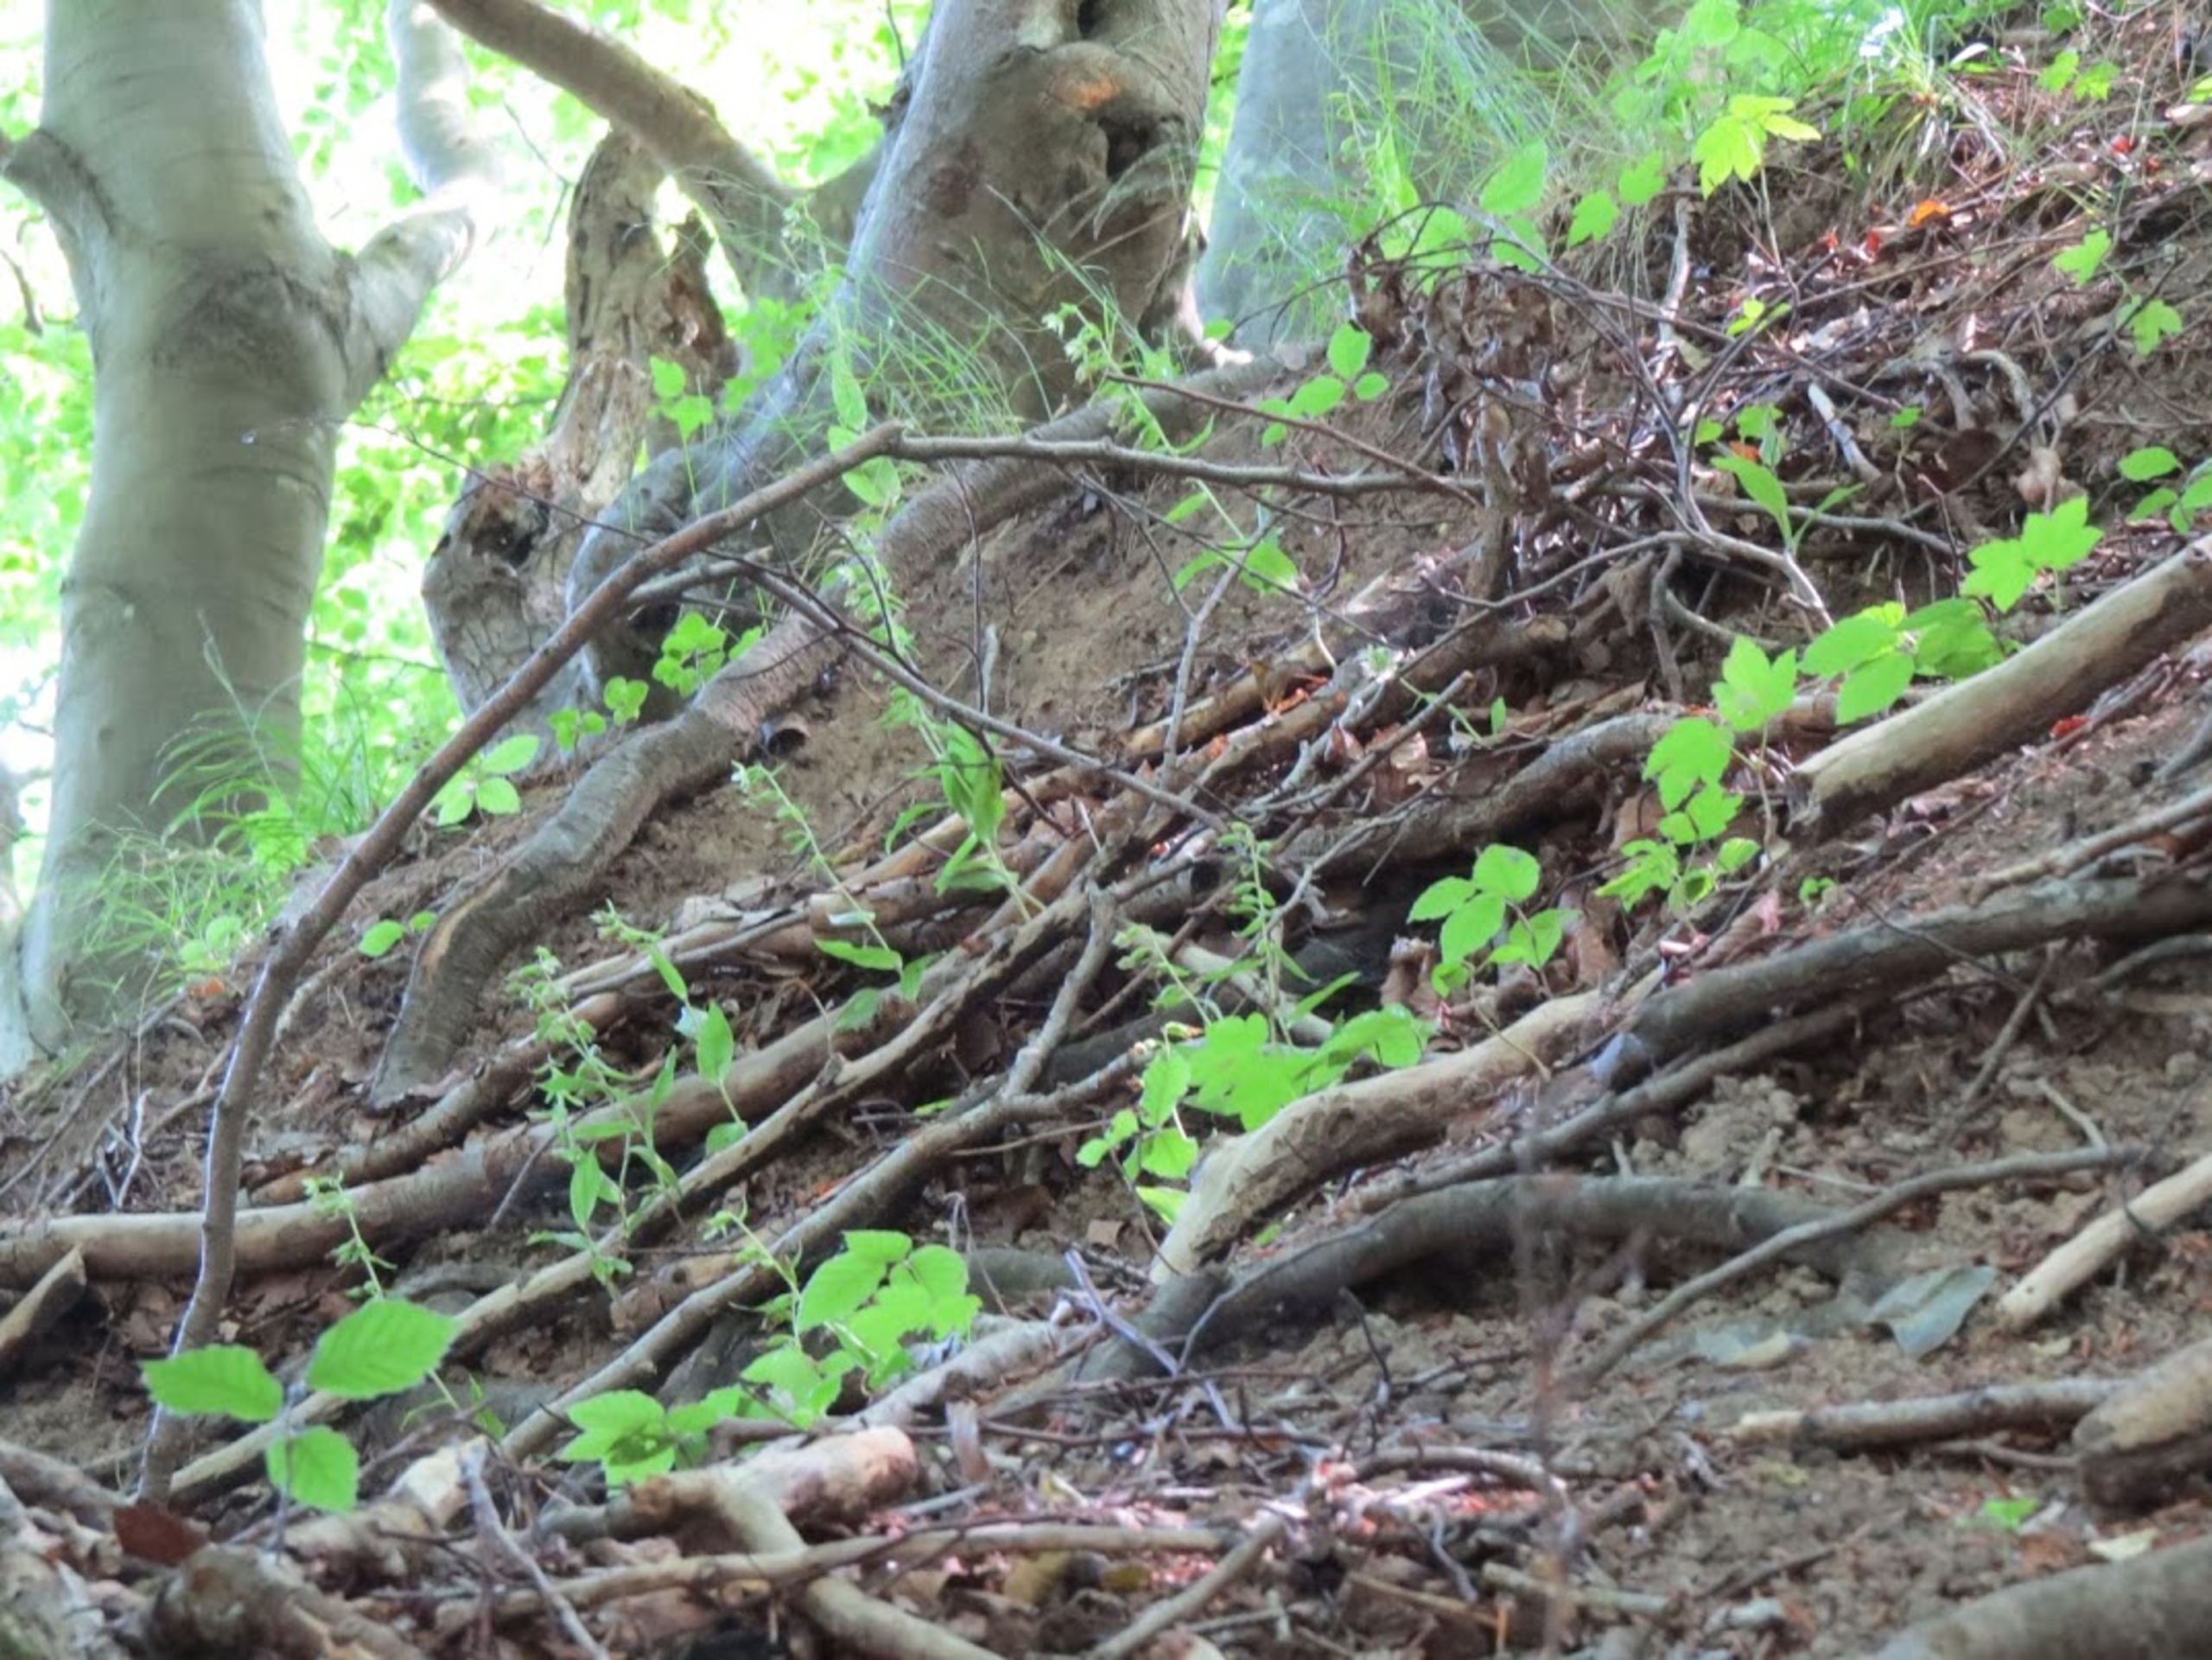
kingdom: Plantae
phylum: Tracheophyta
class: Liliopsida
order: Asparagales
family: Orchidaceae
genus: Epipactis
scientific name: Epipactis leptochila
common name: Storblomstret hullæbe
